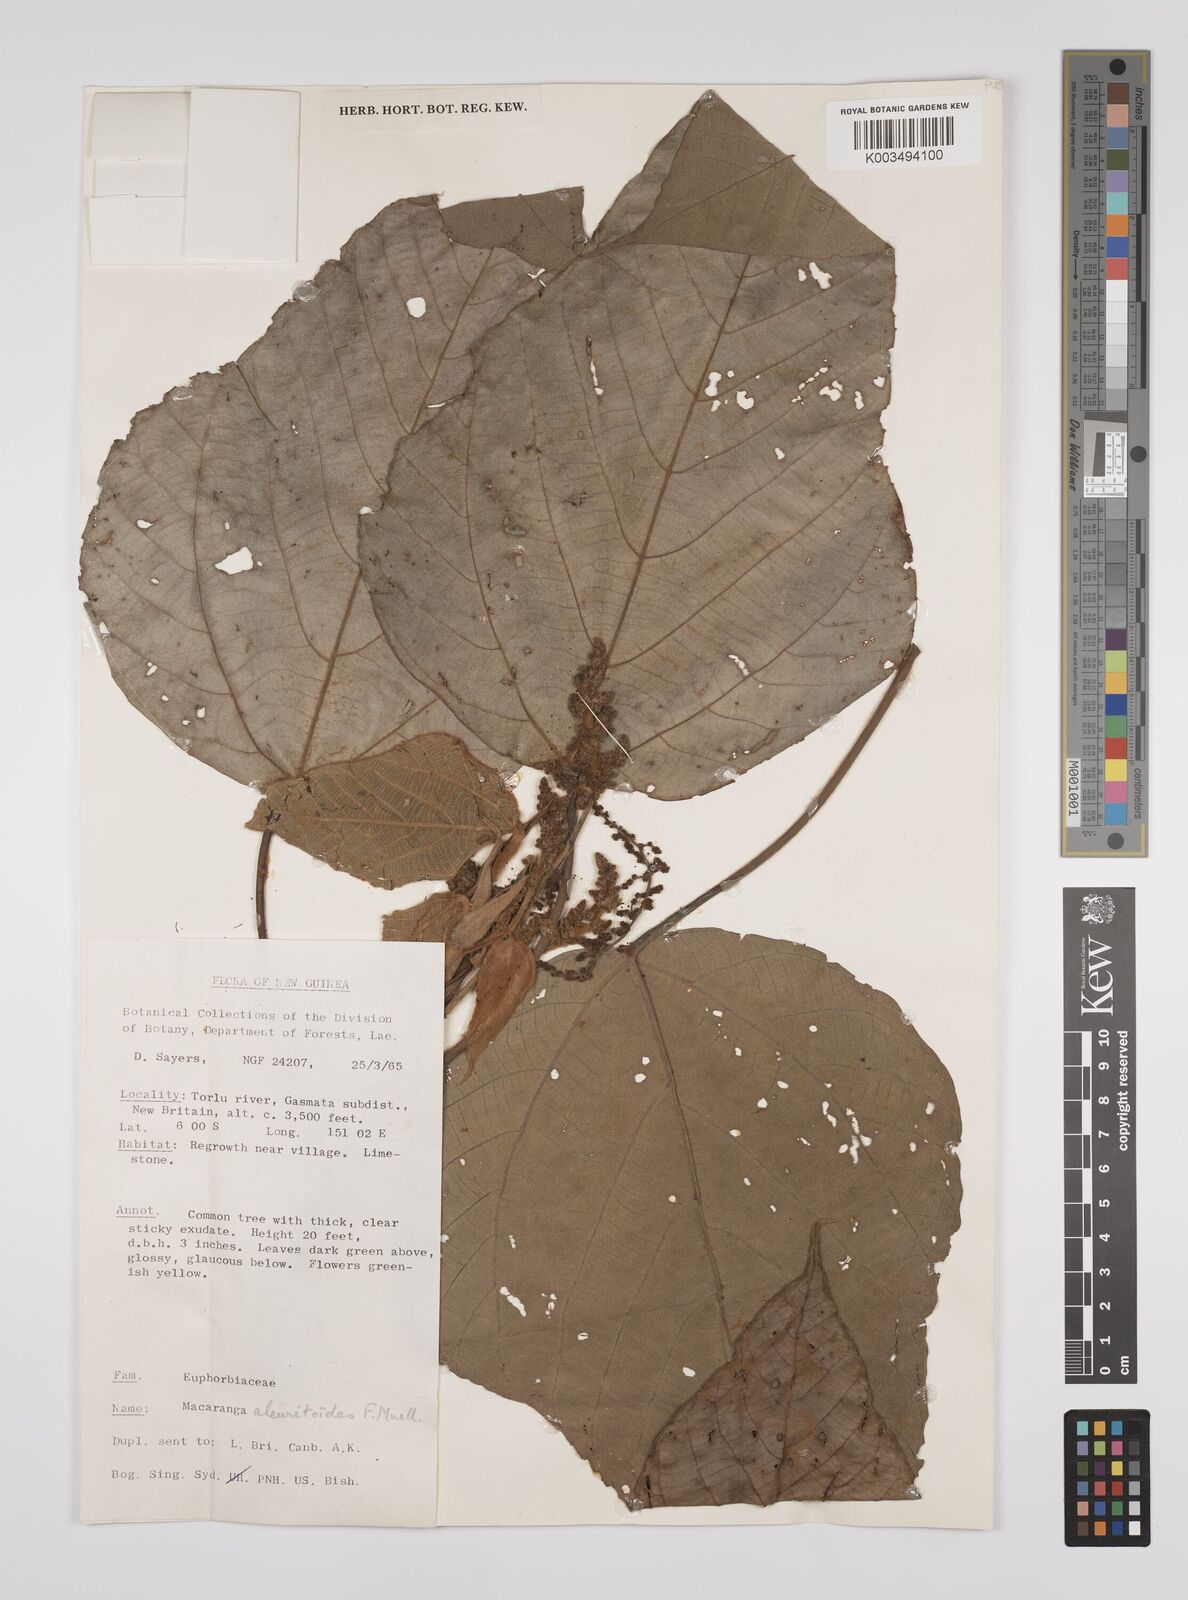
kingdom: Plantae
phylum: Tracheophyta
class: Magnoliopsida
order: Malpighiales
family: Euphorbiaceae
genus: Macaranga
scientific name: Macaranga aleuritoides
